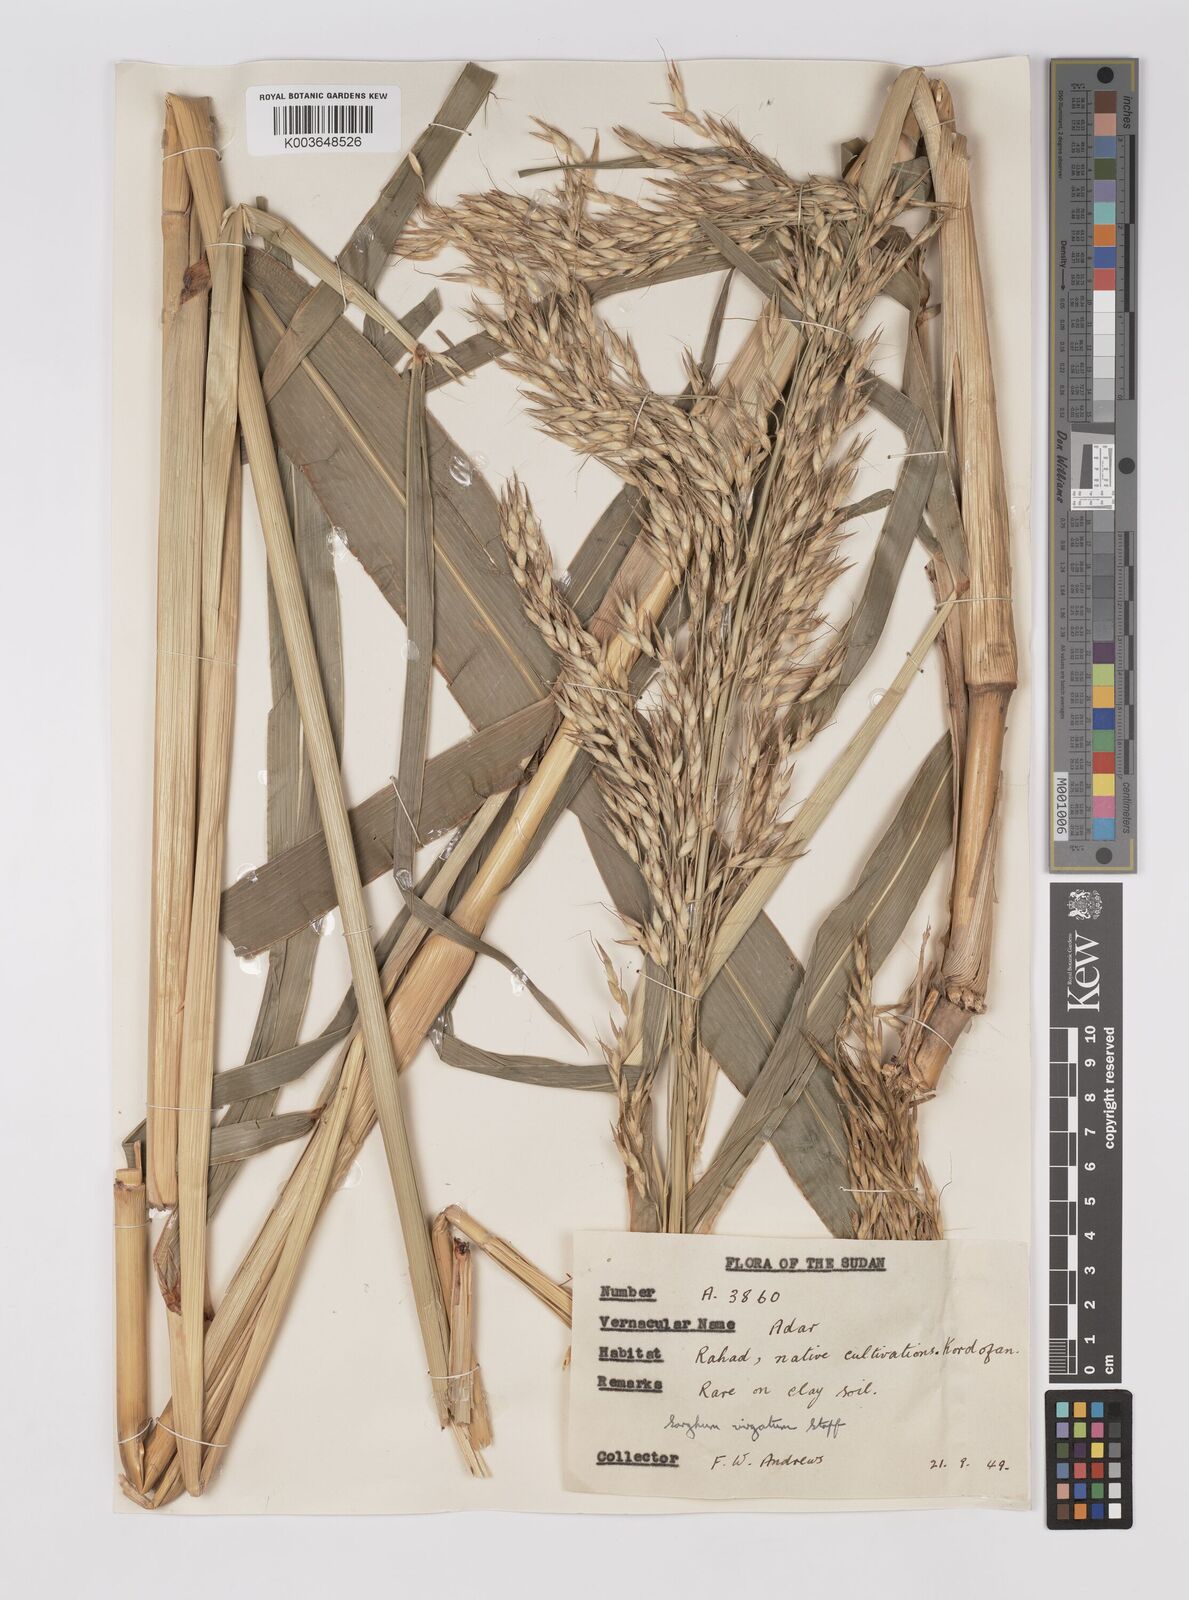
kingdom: Plantae
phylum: Tracheophyta
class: Liliopsida
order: Poales
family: Poaceae
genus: Sorghum
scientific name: Sorghum drummondii
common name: Sudangrass
